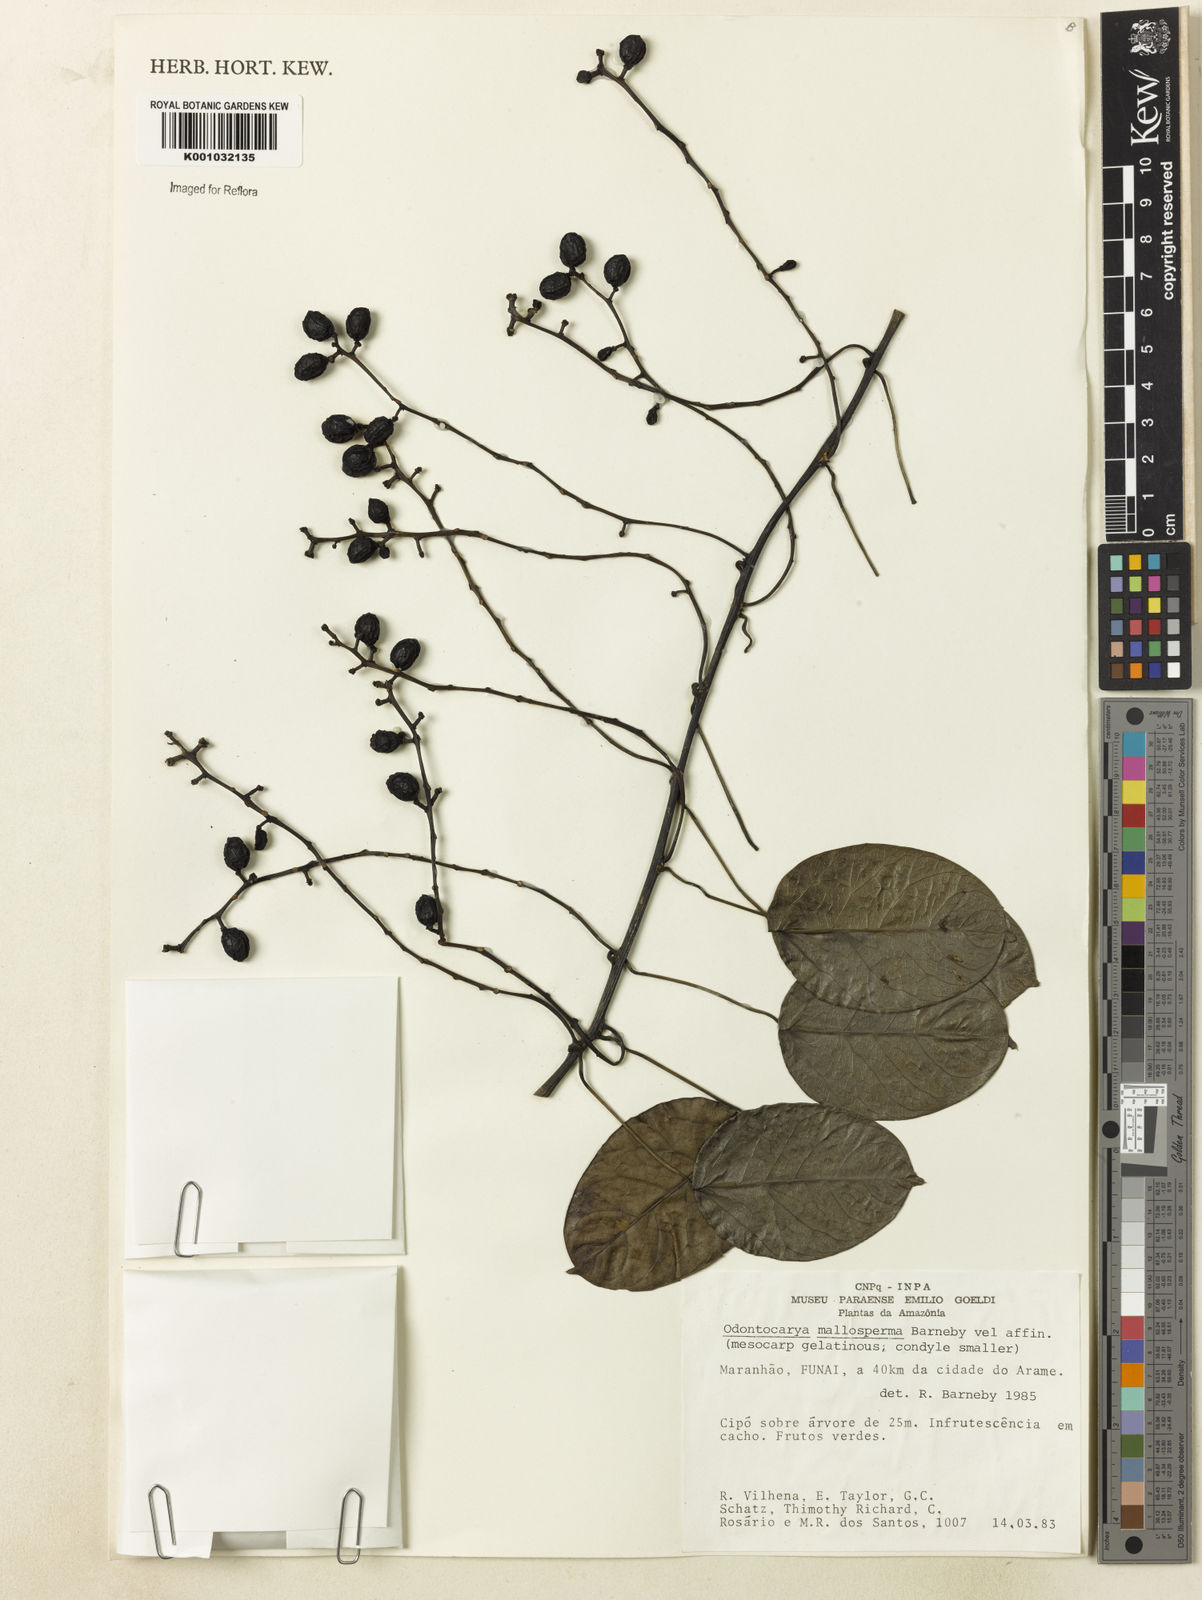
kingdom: Plantae
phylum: Tracheophyta
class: Magnoliopsida
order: Ranunculales
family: Menispermaceae
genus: Odontocarya
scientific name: Odontocarya mallosperma
